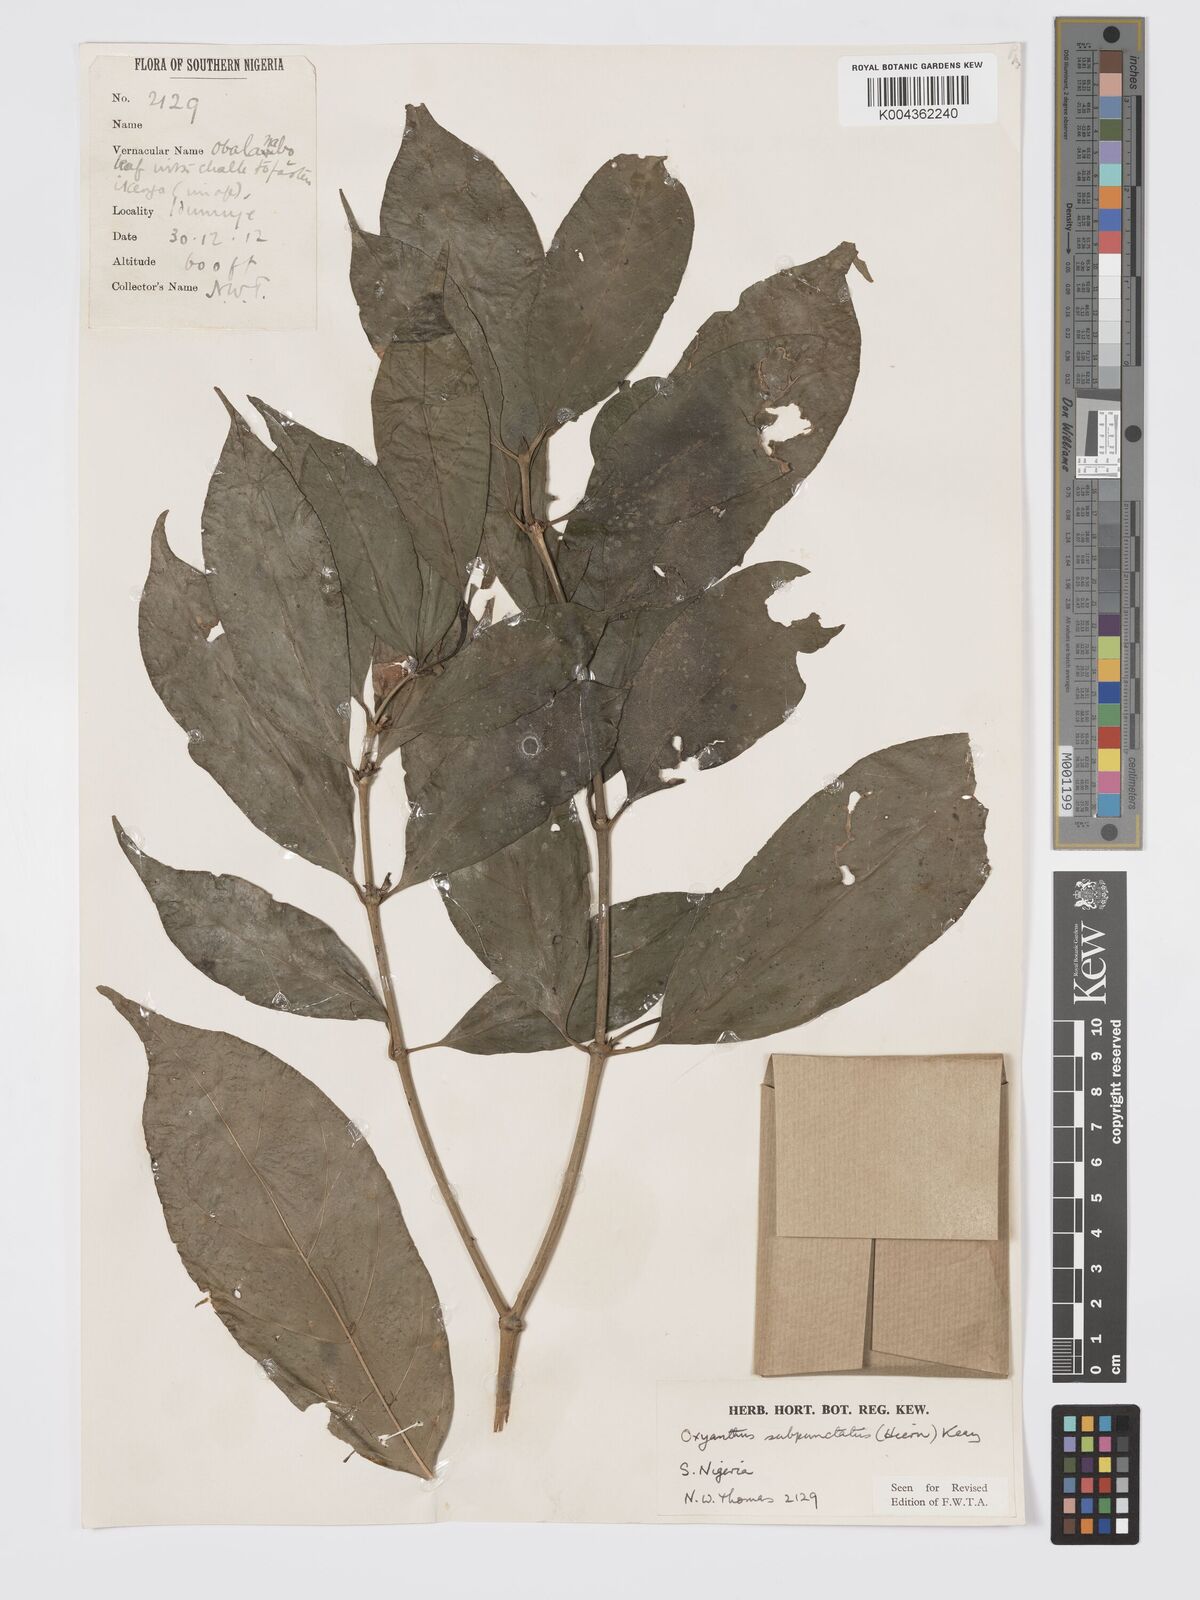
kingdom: Plantae
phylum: Tracheophyta
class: Magnoliopsida
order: Gentianales
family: Rubiaceae
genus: Oxyanthus
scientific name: Oxyanthus subpunctatus
